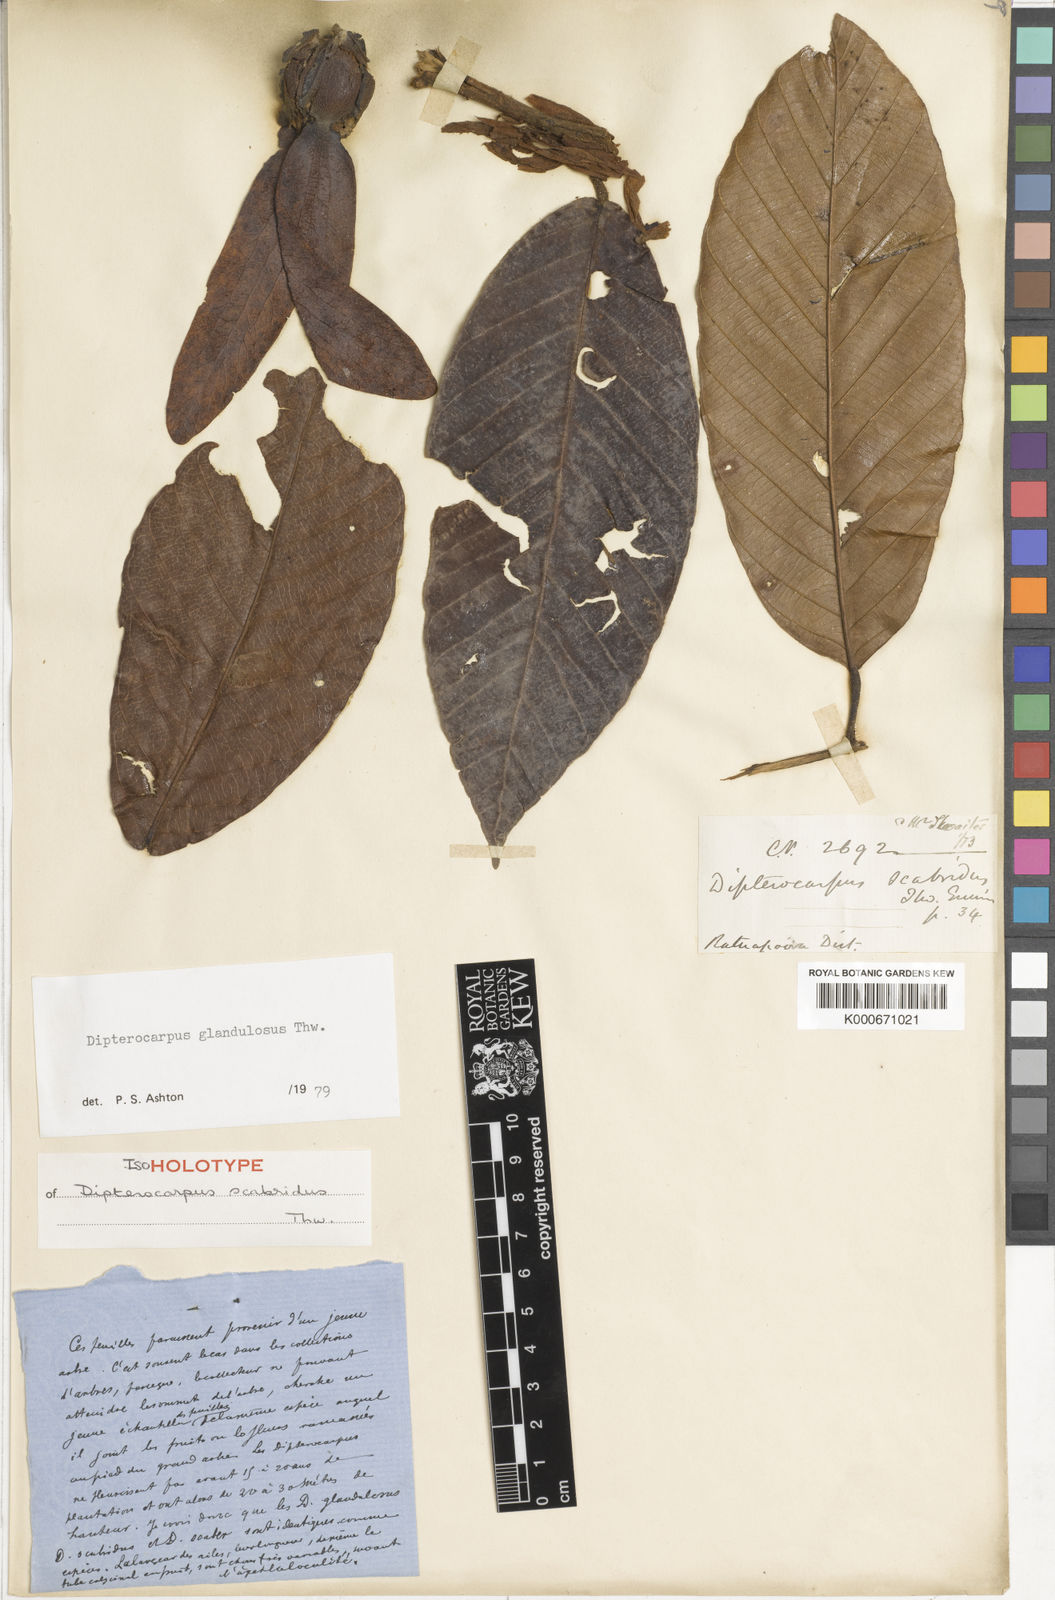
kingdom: Plantae
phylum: Tracheophyta
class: Magnoliopsida
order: Malvales
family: Dipterocarpaceae
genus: Dipterocarpus
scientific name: Dipterocarpus glandulosus
